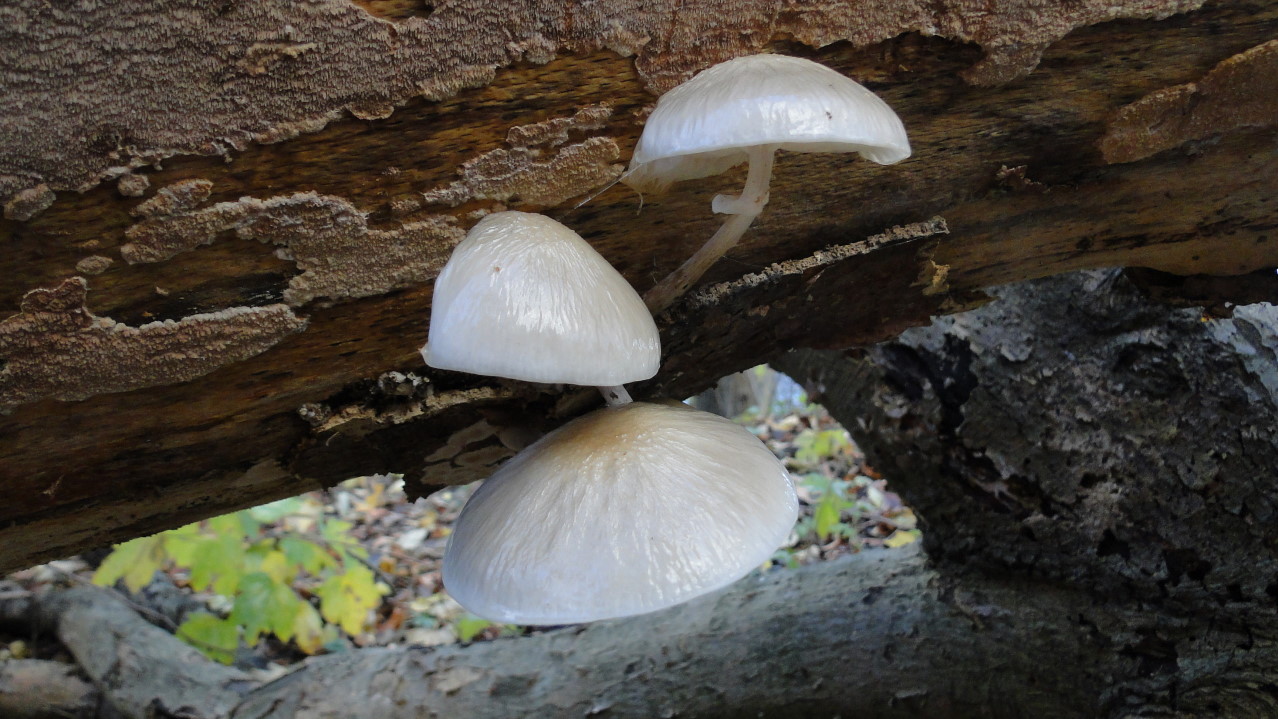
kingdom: Fungi
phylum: Basidiomycota
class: Agaricomycetes
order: Agaricales
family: Physalacriaceae
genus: Mucidula
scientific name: Mucidula mucida
